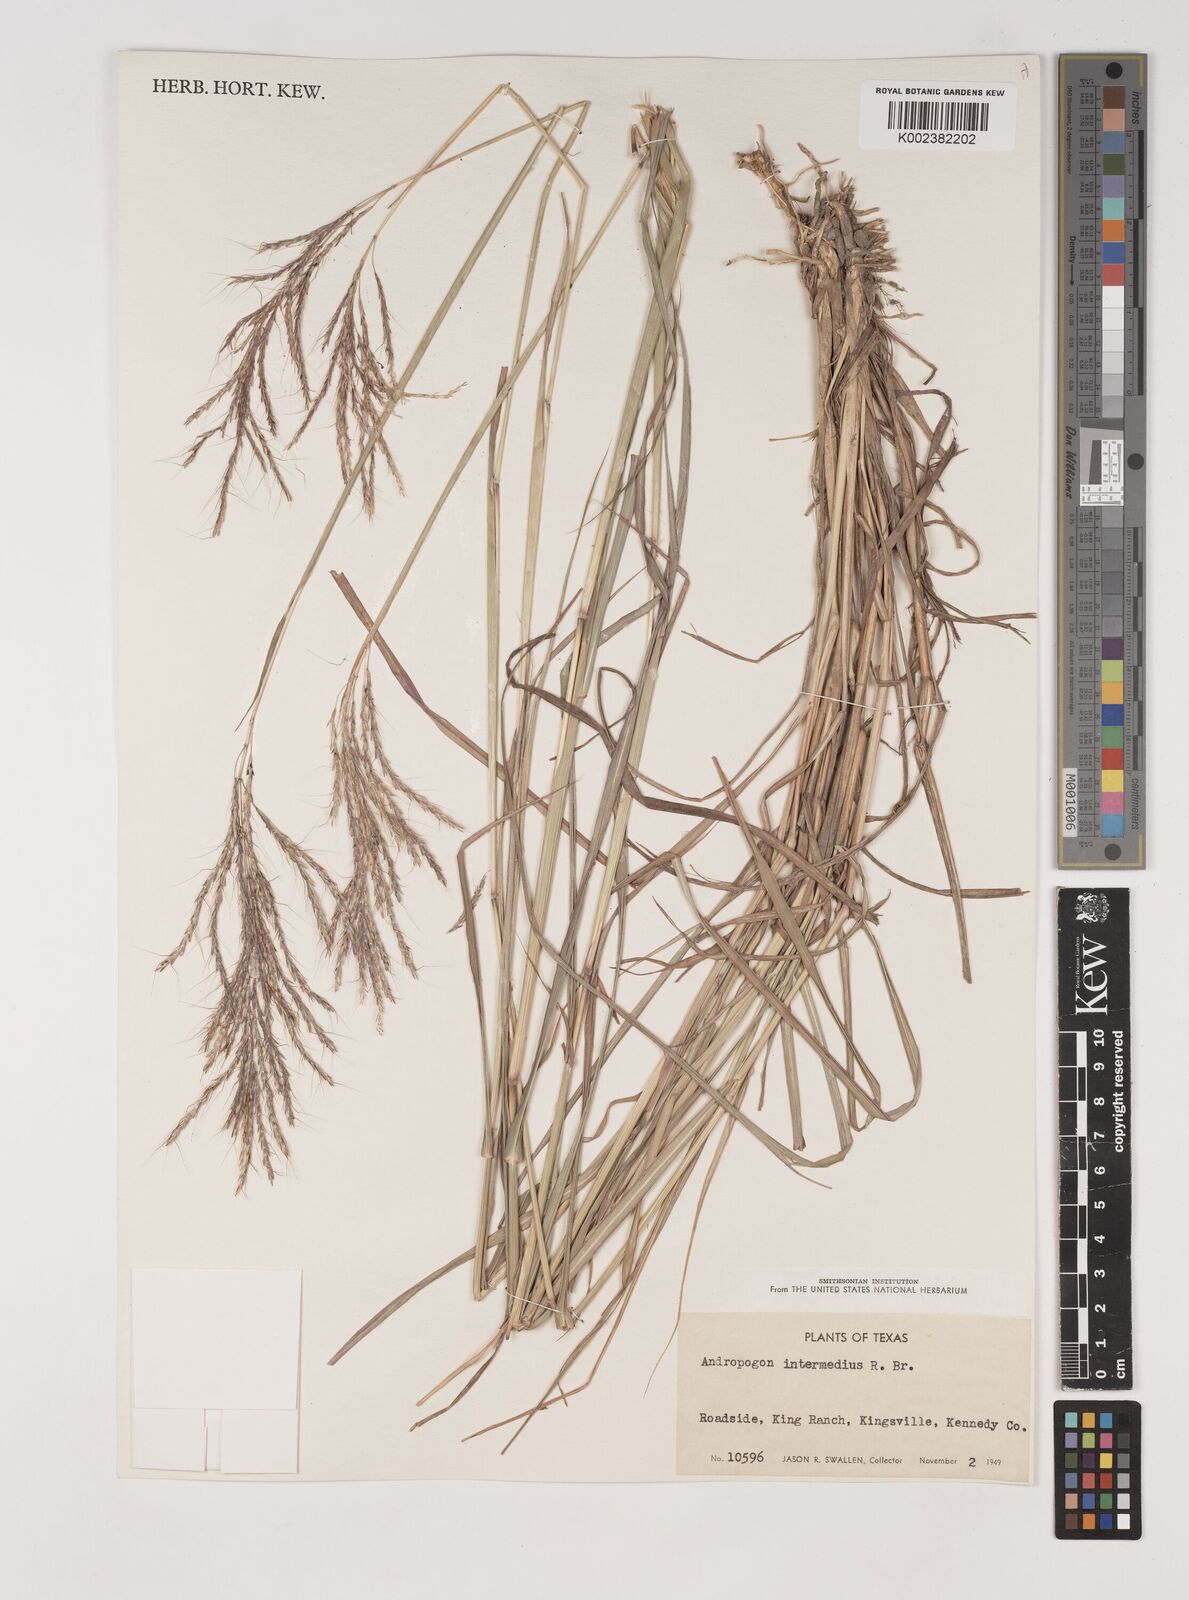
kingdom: Plantae
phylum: Tracheophyta
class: Liliopsida
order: Poales
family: Poaceae
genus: Bothriochloa
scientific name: Bothriochloa bladhii
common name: Caucasian bluestem
